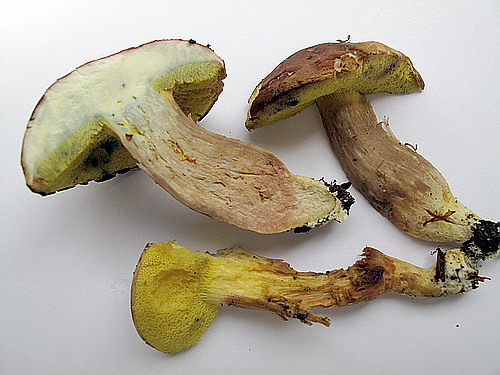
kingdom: Fungi
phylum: Basidiomycota
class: Agaricomycetes
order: Boletales
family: Boletaceae
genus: Xerocomus
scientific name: Xerocomus ferrugineus
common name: vaskeskinds-rørhat
